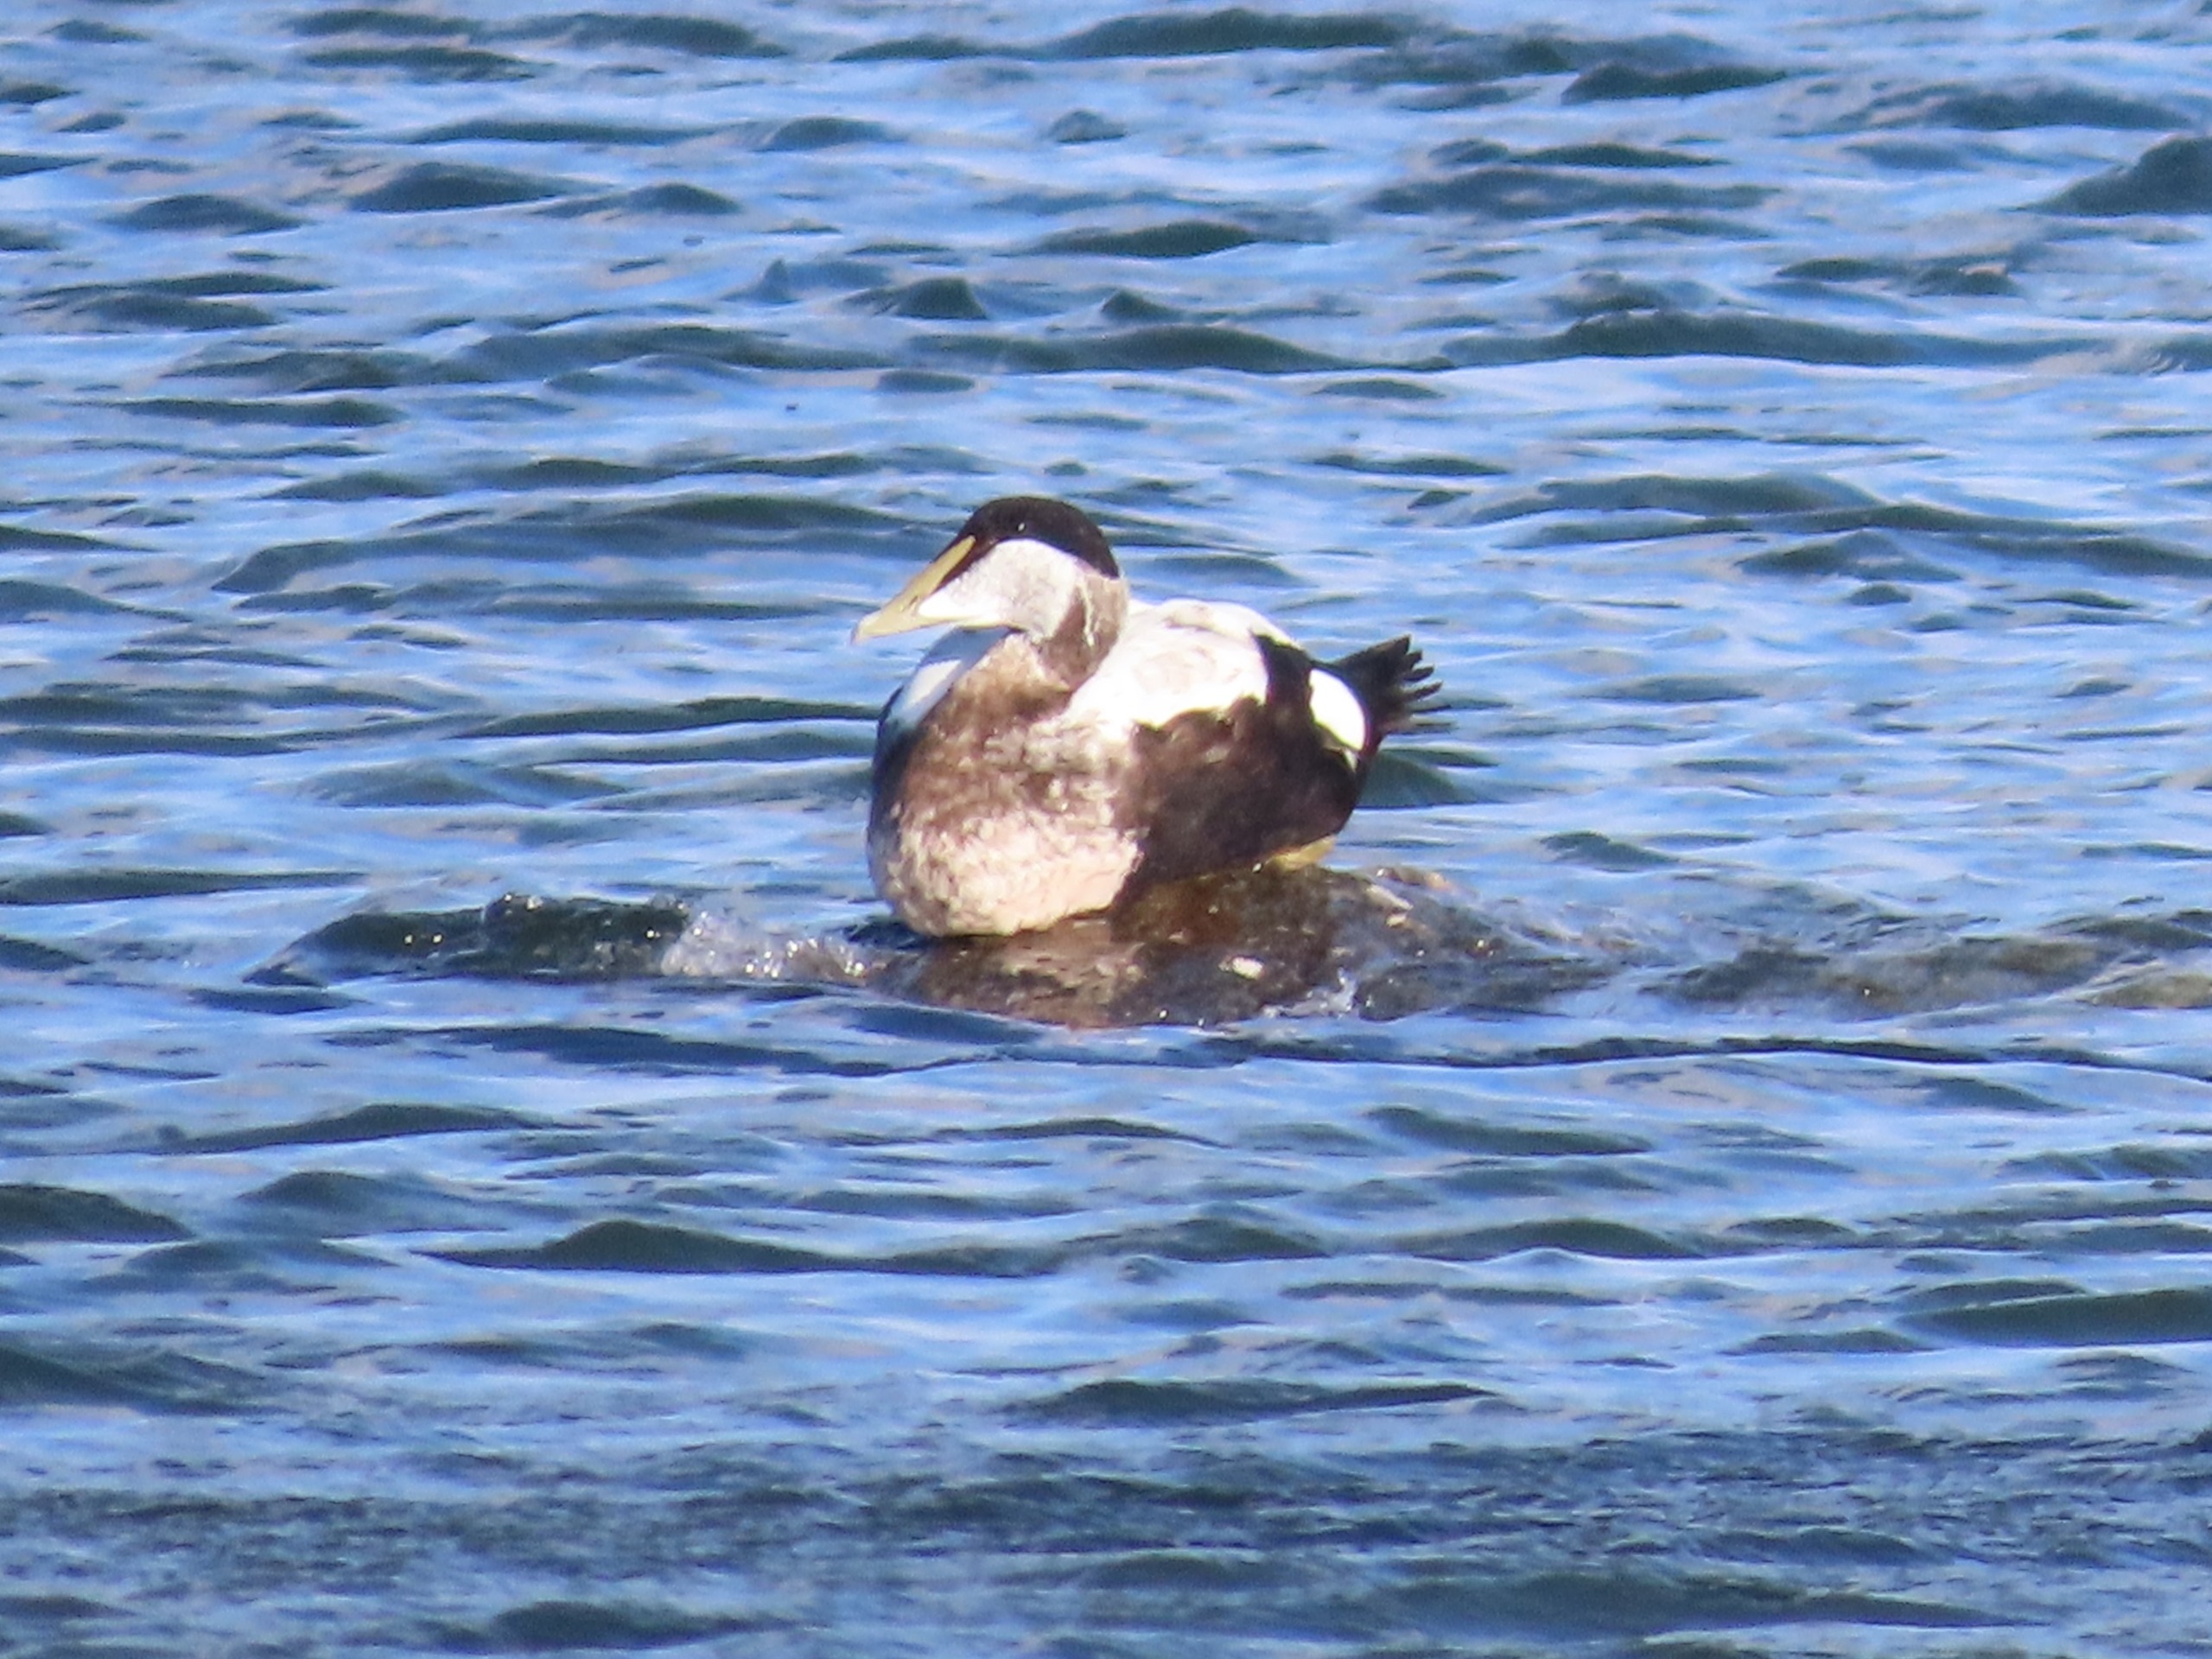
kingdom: Animalia
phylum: Chordata
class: Aves
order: Anseriformes
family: Anatidae
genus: Somateria
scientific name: Somateria mollissima
